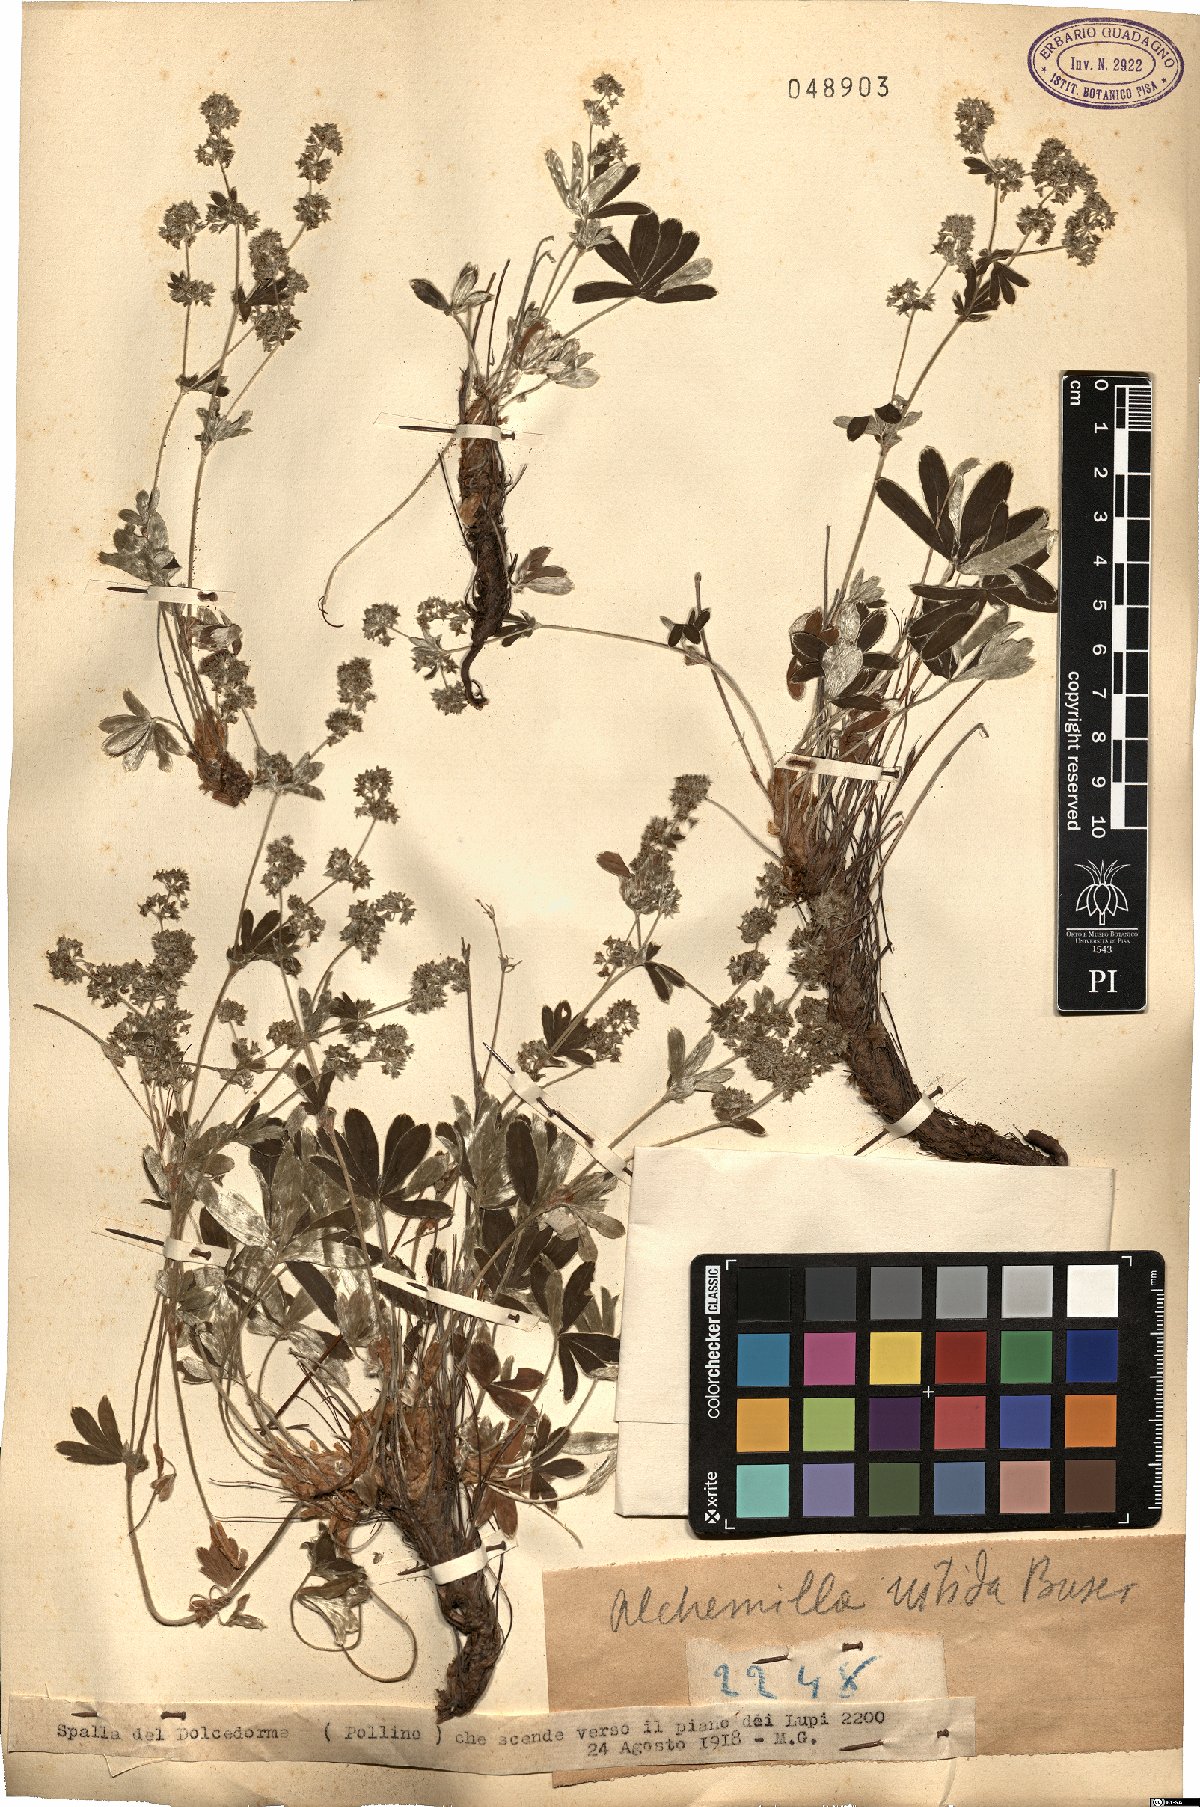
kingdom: Plantae
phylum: Tracheophyta
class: Magnoliopsida
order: Rosales
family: Rosaceae
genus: Alchemilla
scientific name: Alchemilla alpinula
